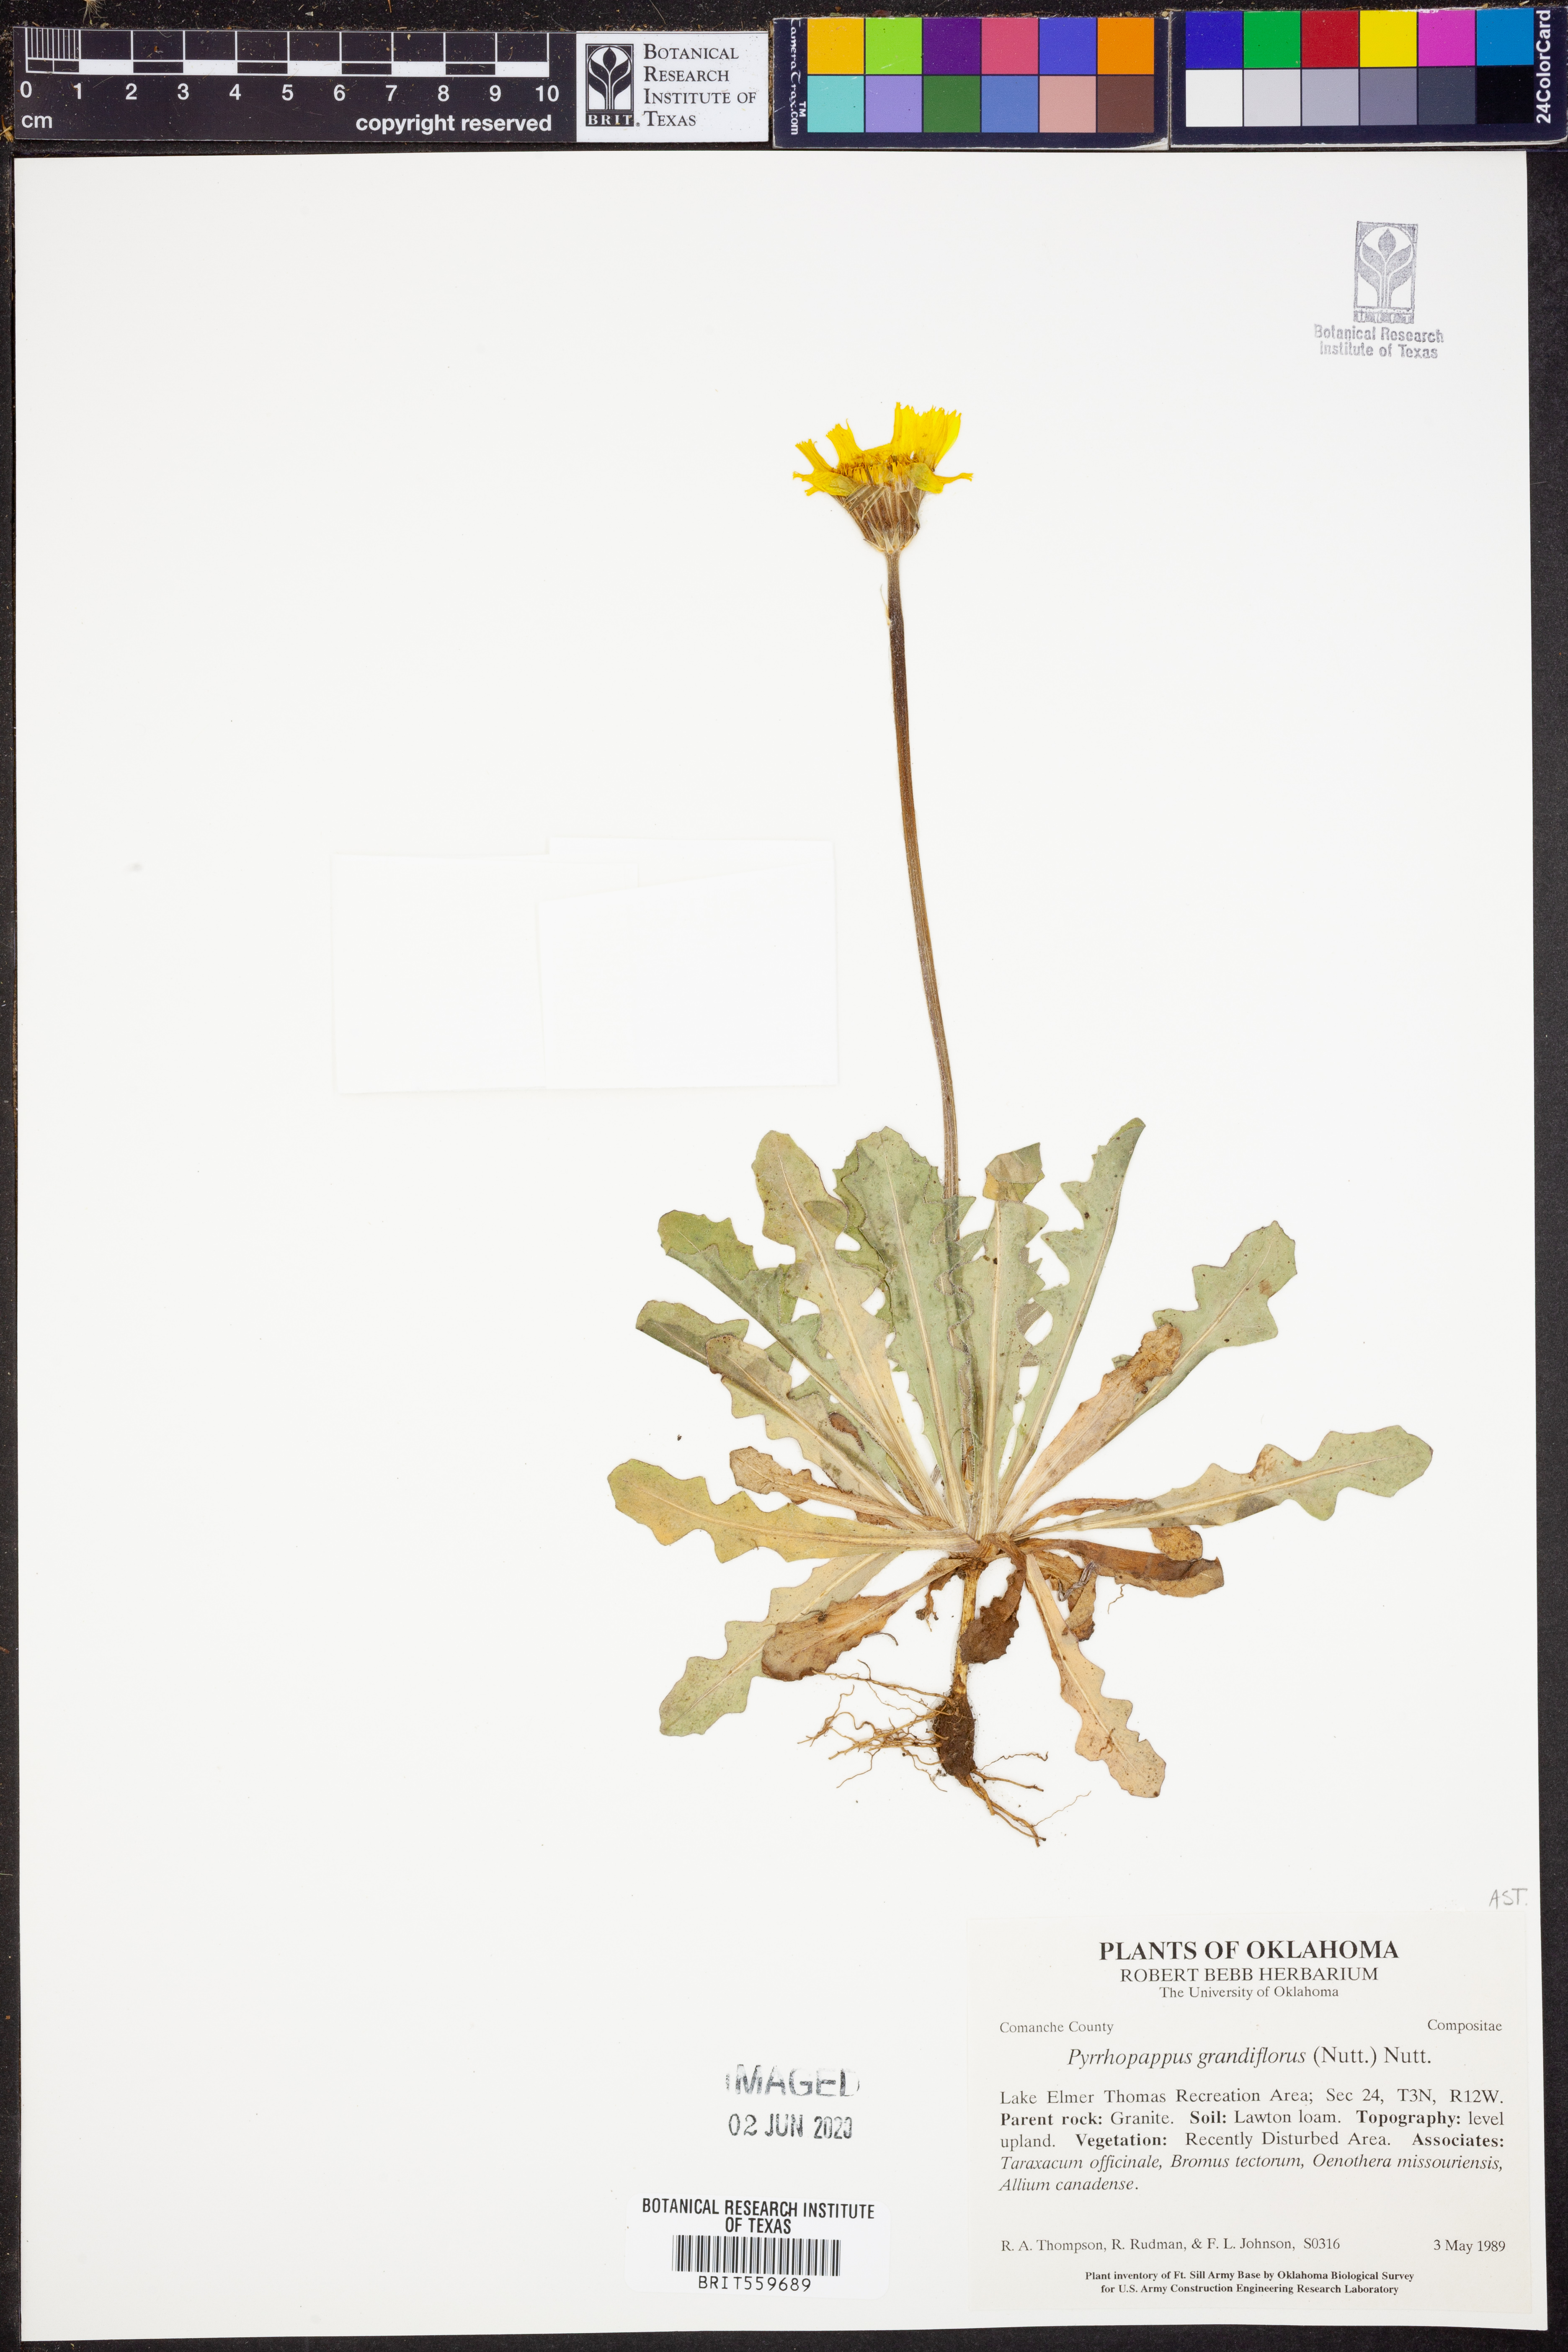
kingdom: Plantae
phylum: Tracheophyta
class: Magnoliopsida
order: Asterales
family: Asteraceae
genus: Pyrrhopappus
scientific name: Pyrrhopappus grandiflorus
